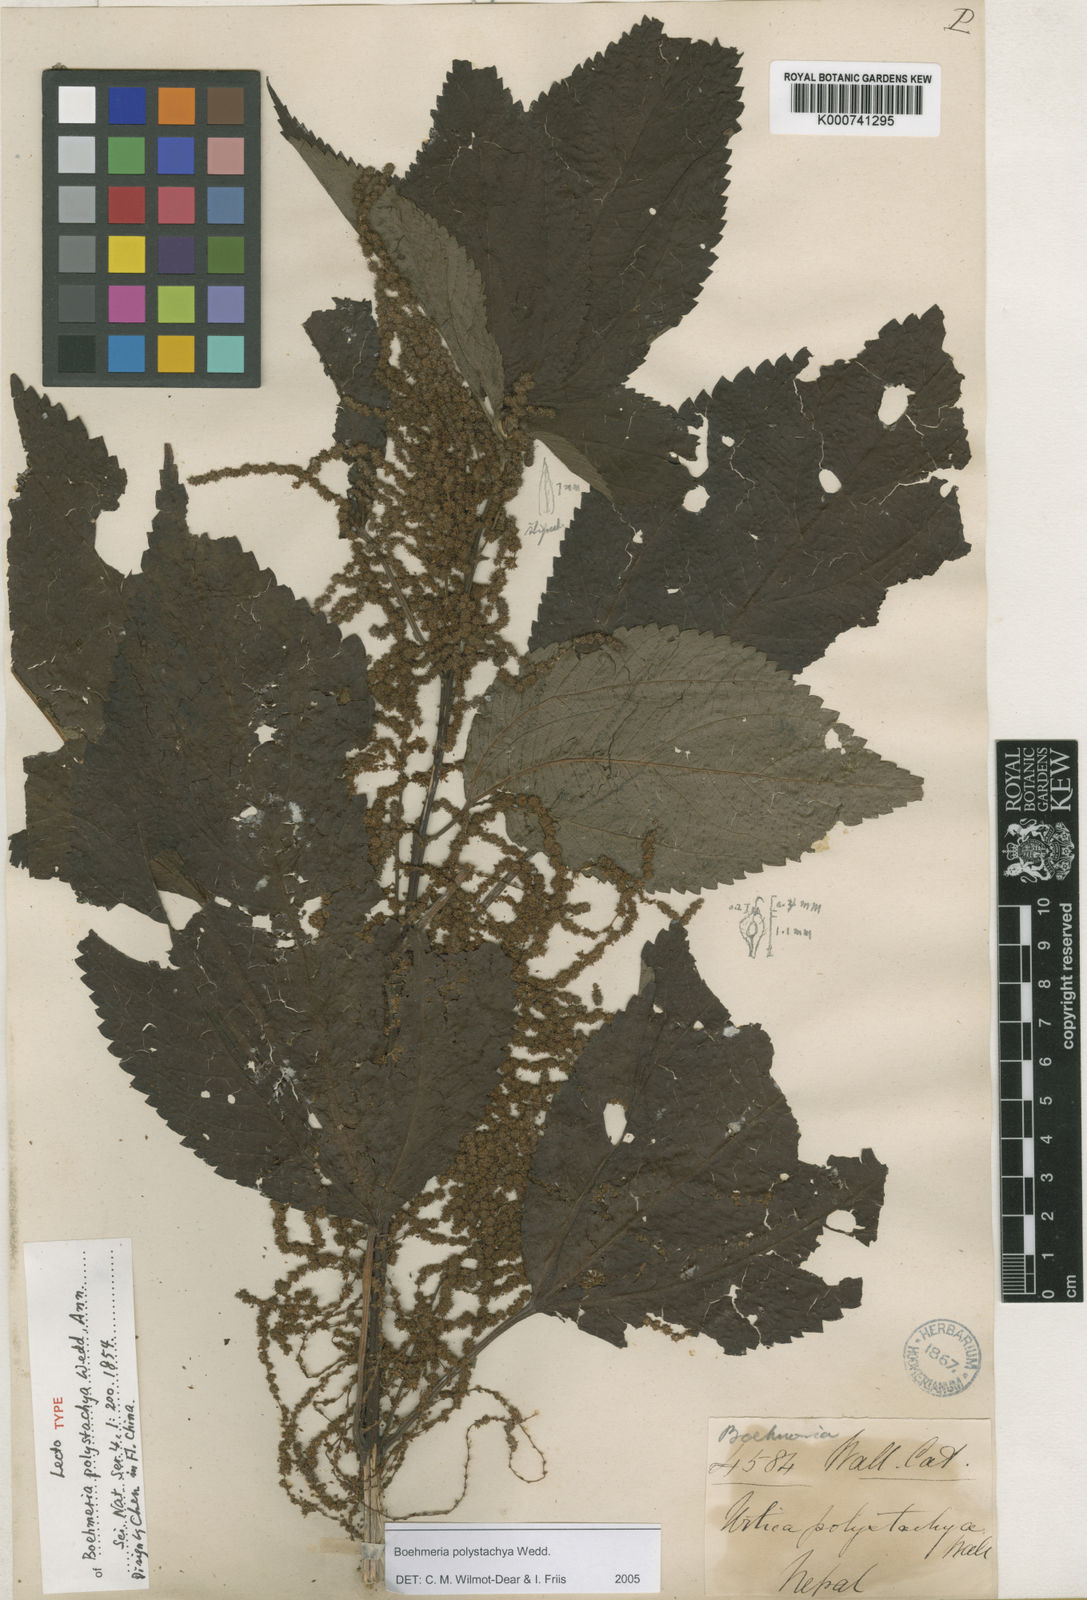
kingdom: Plantae
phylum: Tracheophyta
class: Magnoliopsida
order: Rosales
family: Urticaceae
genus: Boehmeria
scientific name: Boehmeria polystachya
